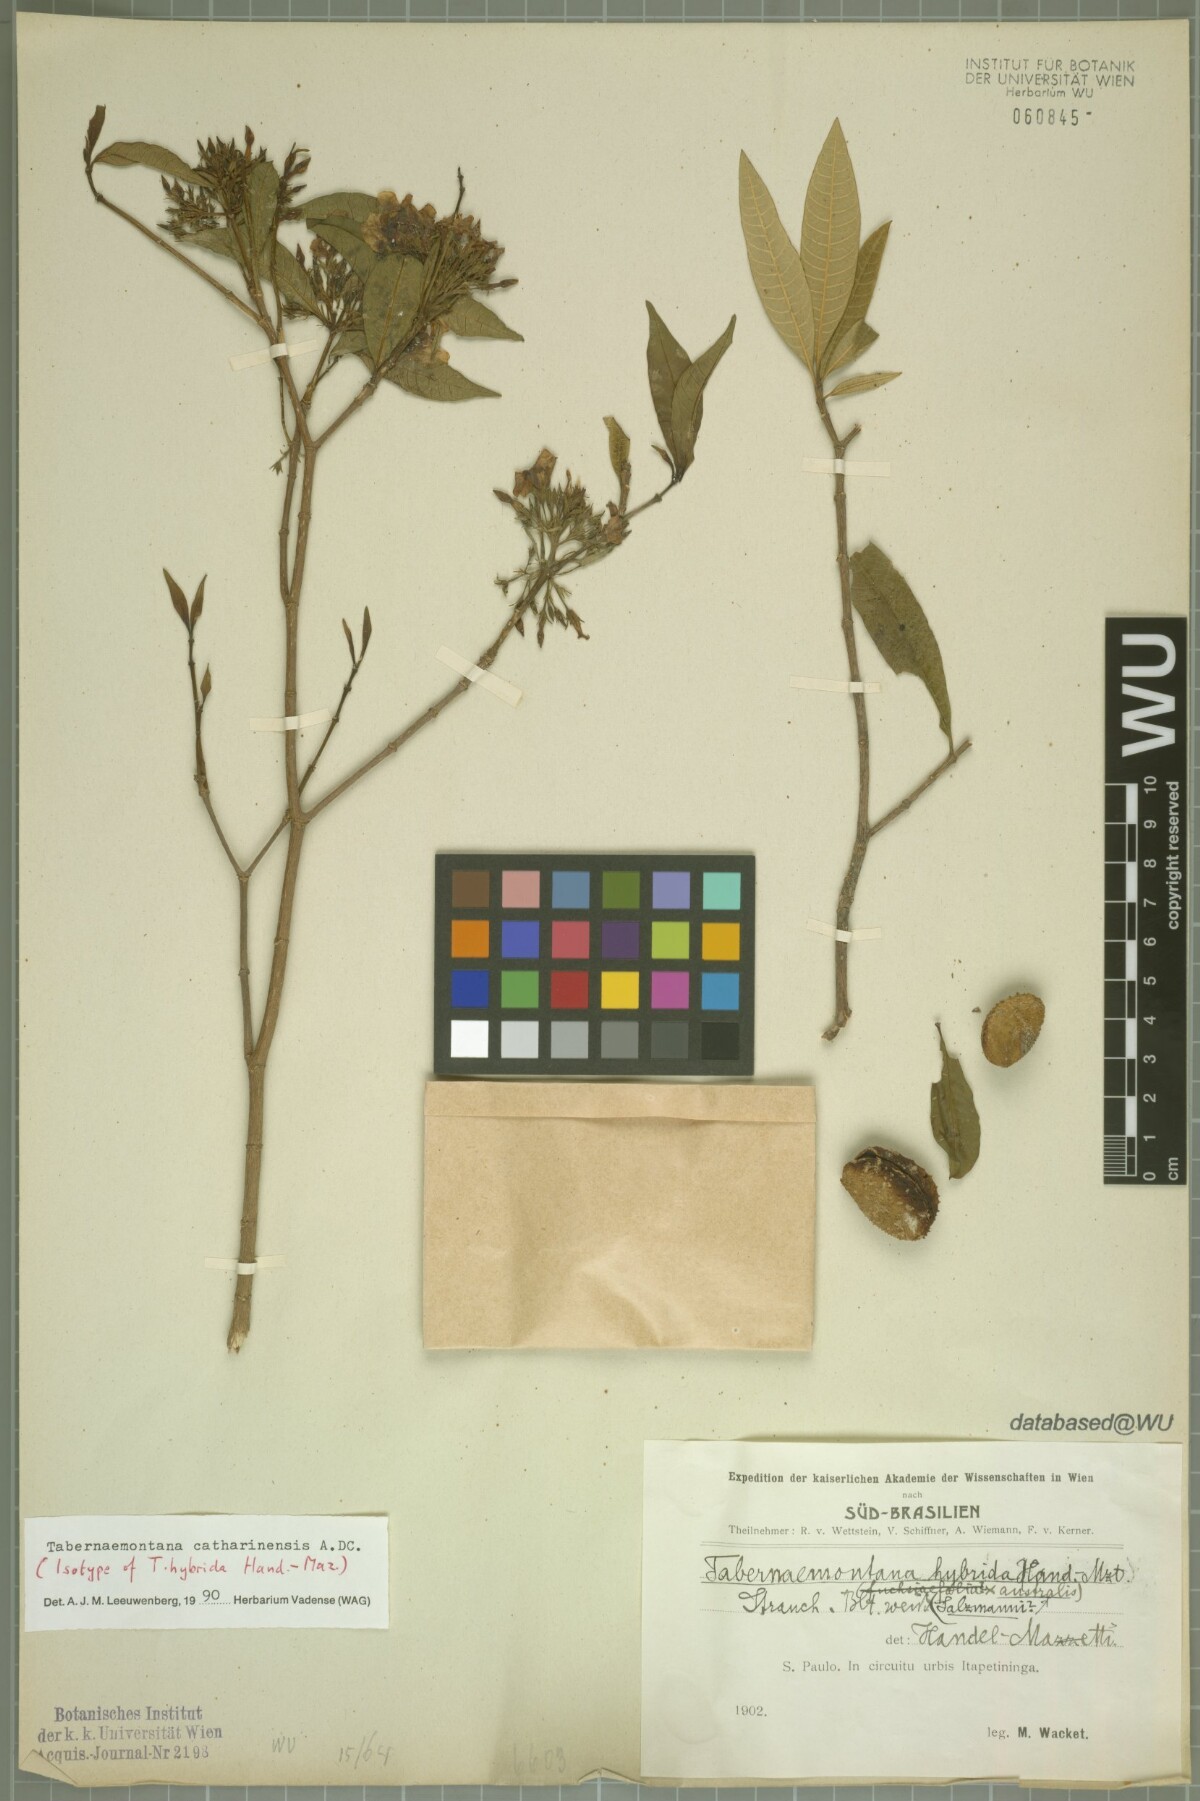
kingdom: Plantae
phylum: Tracheophyta
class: Magnoliopsida
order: Gentianales
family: Apocynaceae
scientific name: Apocynaceae
